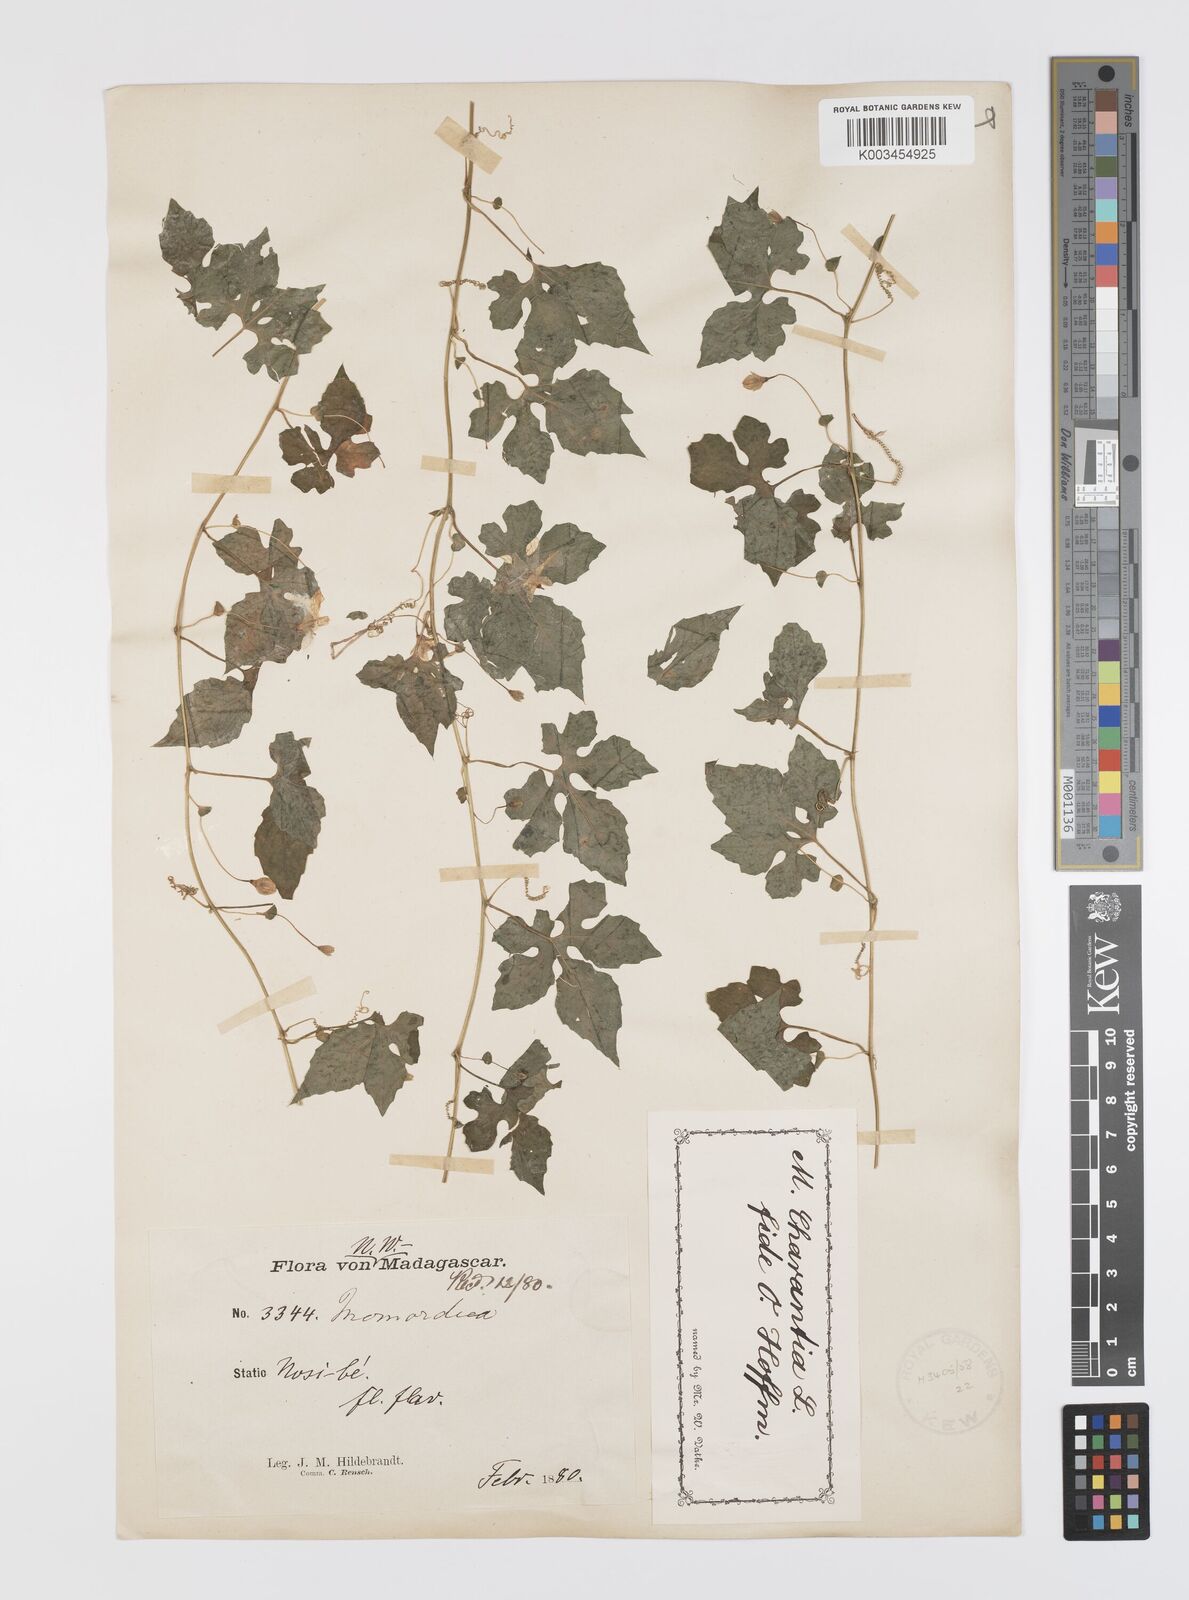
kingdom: Plantae
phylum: Tracheophyta
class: Magnoliopsida
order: Cucurbitales
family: Cucurbitaceae
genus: Momordica
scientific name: Momordica charantia
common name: Balsampear
